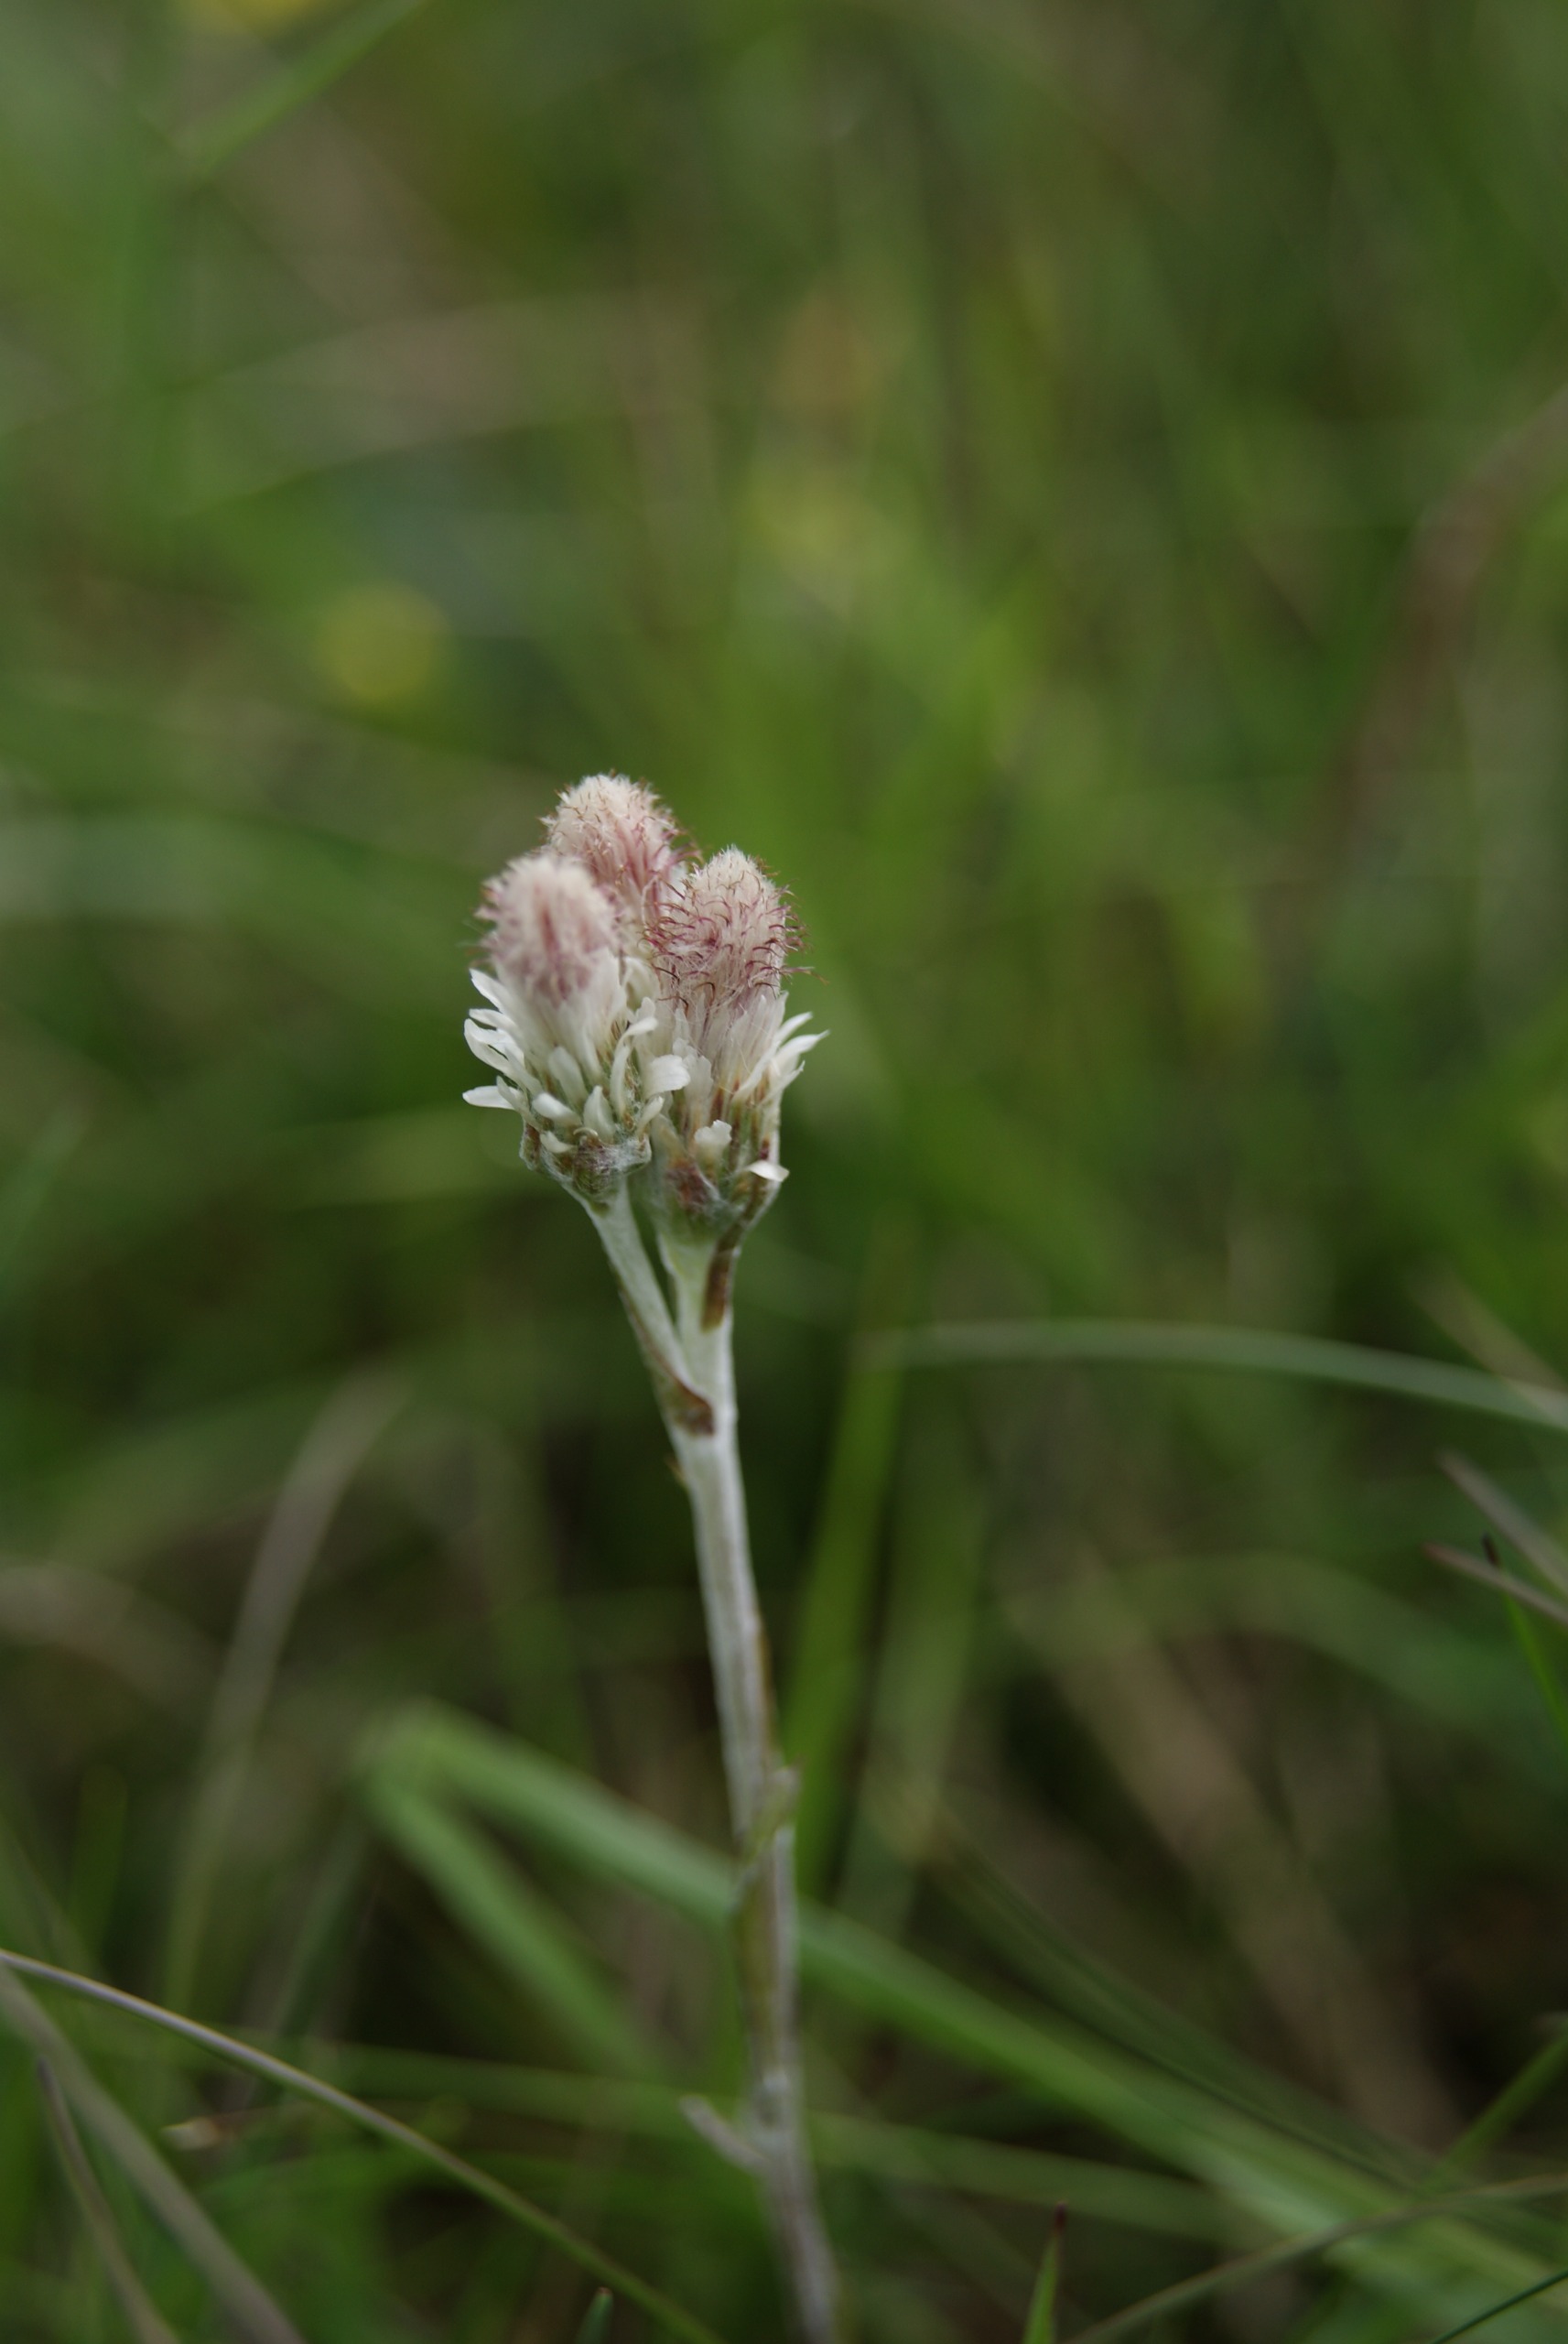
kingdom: Plantae
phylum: Tracheophyta
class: Magnoliopsida
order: Asterales
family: Asteraceae
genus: Antennaria
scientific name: Antennaria dioica
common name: Kattefod
